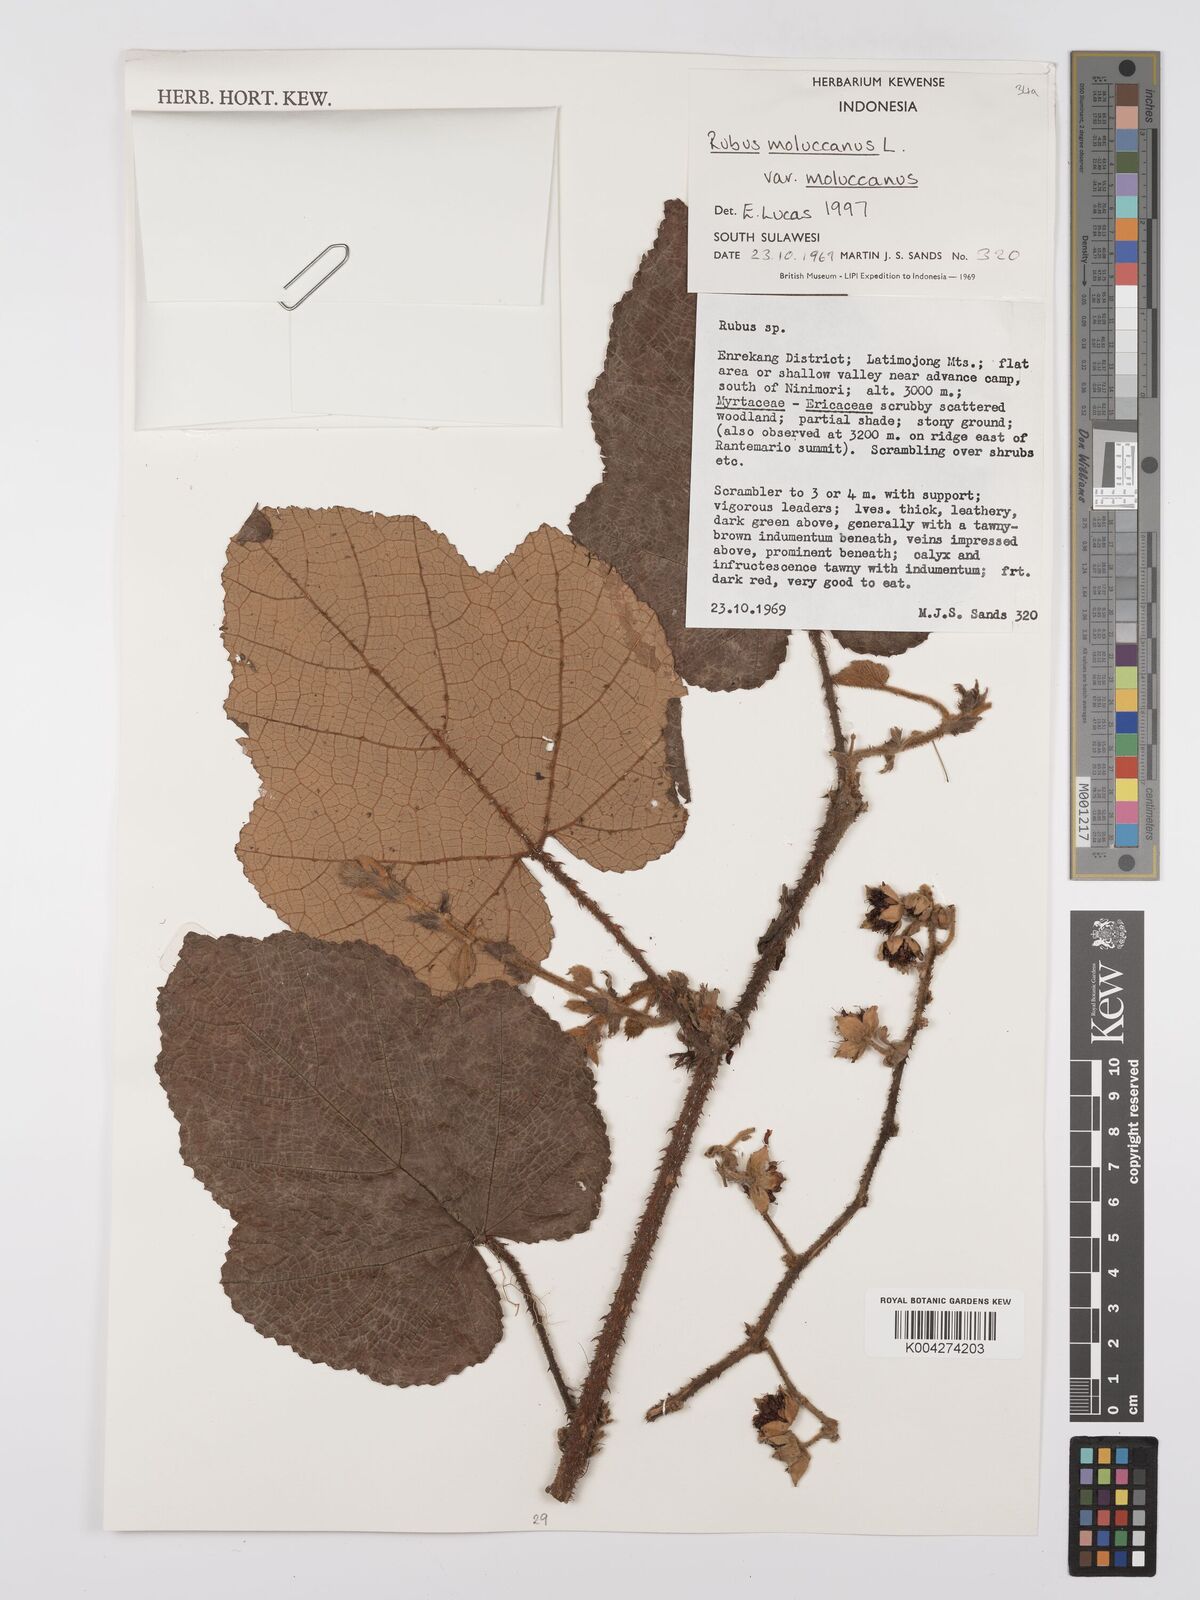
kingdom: Plantae
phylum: Tracheophyta
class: Magnoliopsida
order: Rosales
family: Rosaceae
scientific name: Rosaceae
